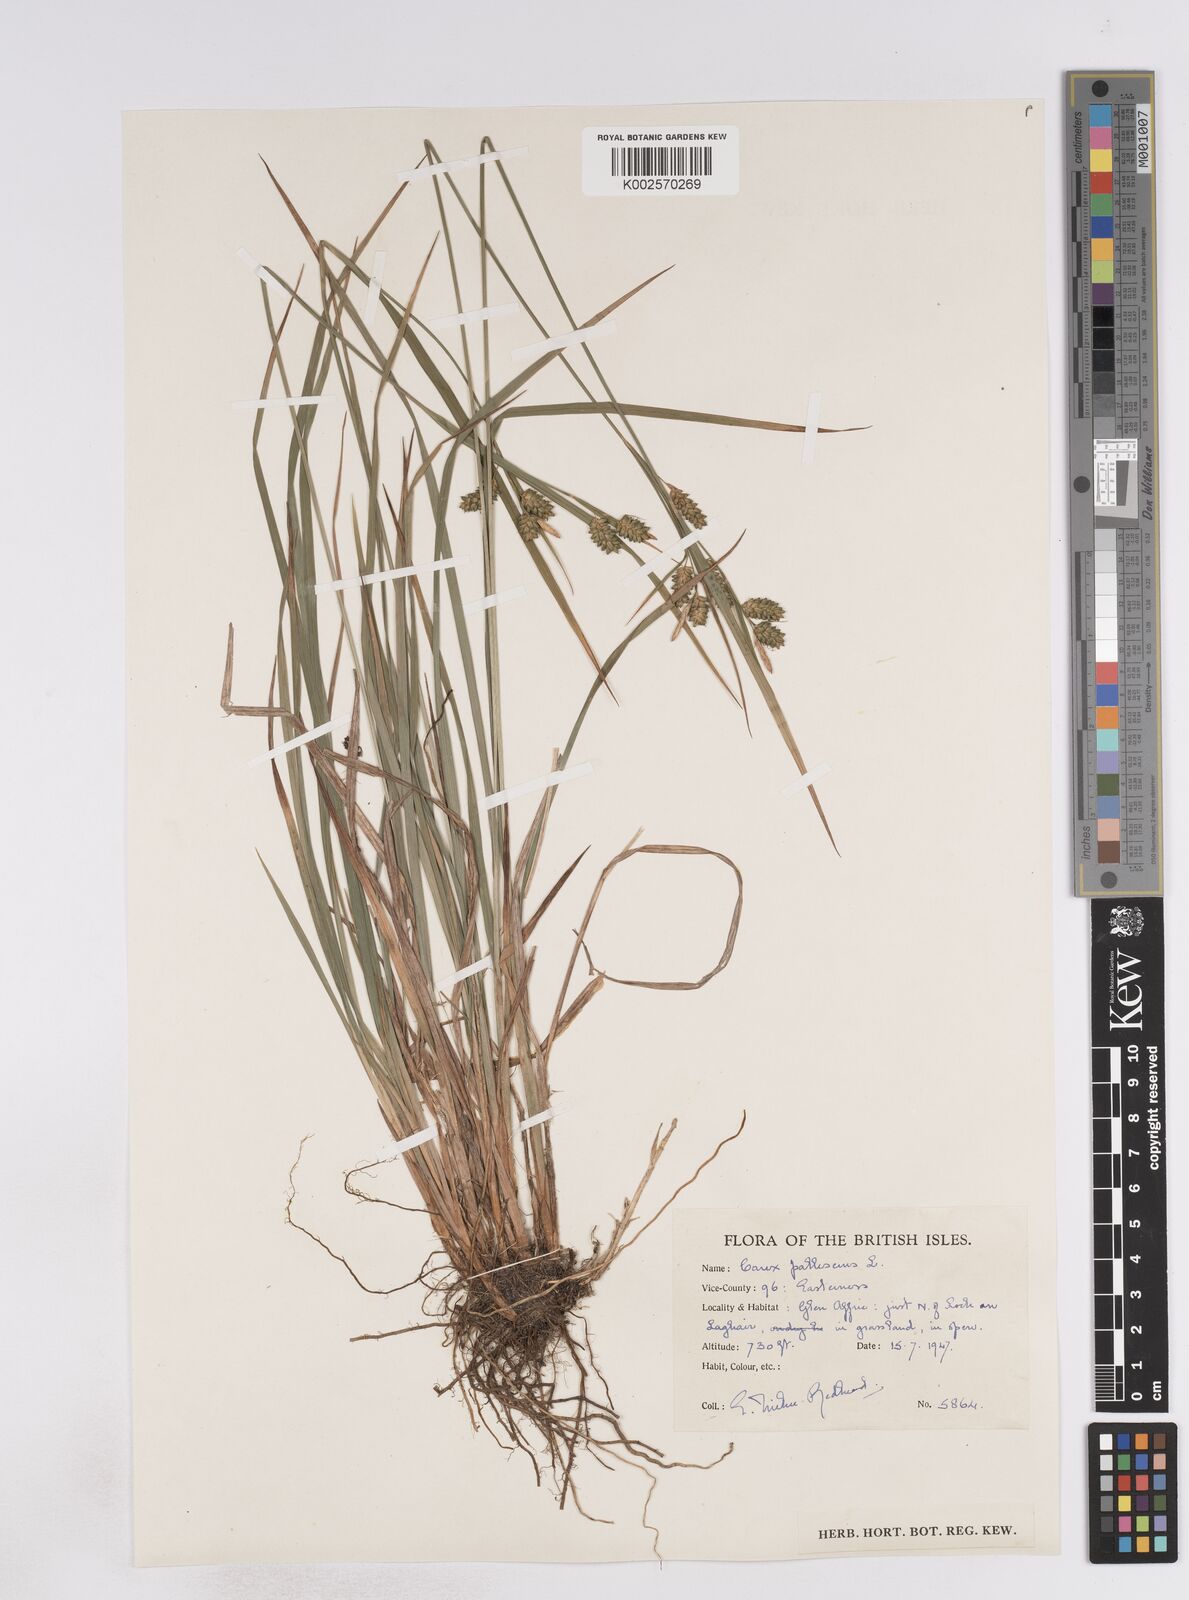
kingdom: Plantae
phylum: Tracheophyta
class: Liliopsida
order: Poales
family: Cyperaceae
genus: Carex
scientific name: Carex pallescens
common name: Pale sedge
